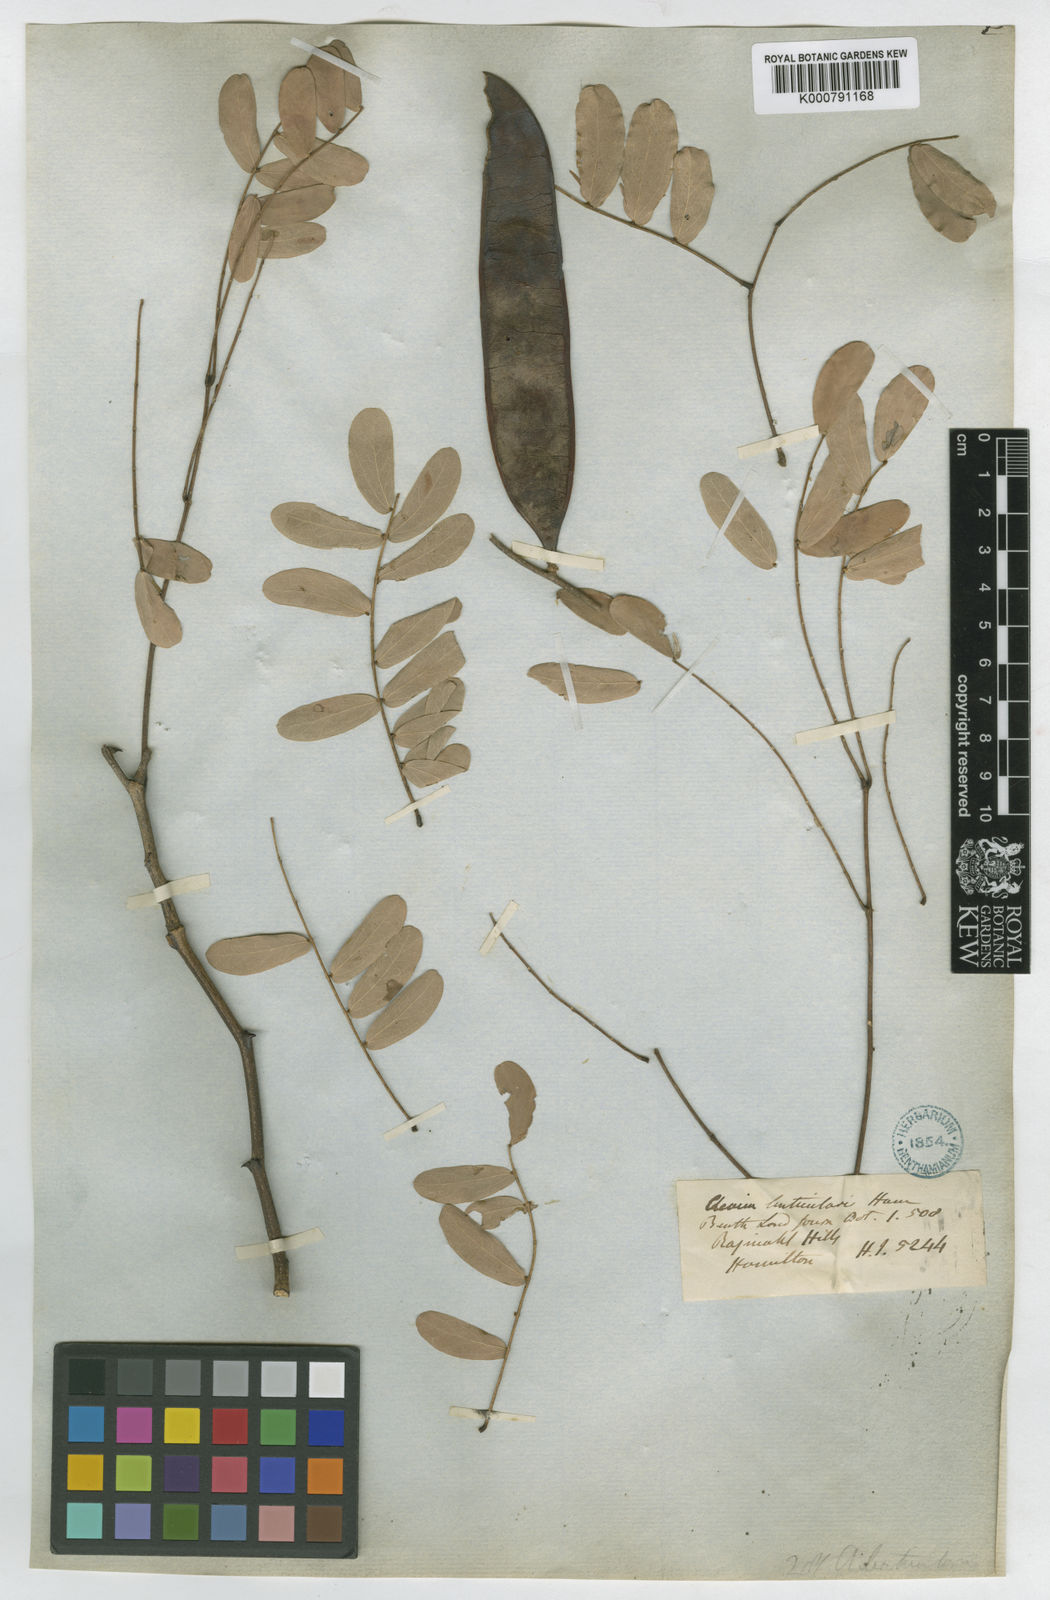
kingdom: Plantae
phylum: Tracheophyta
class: Magnoliopsida
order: Fabales
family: Fabaceae
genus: Acacia
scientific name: Acacia
